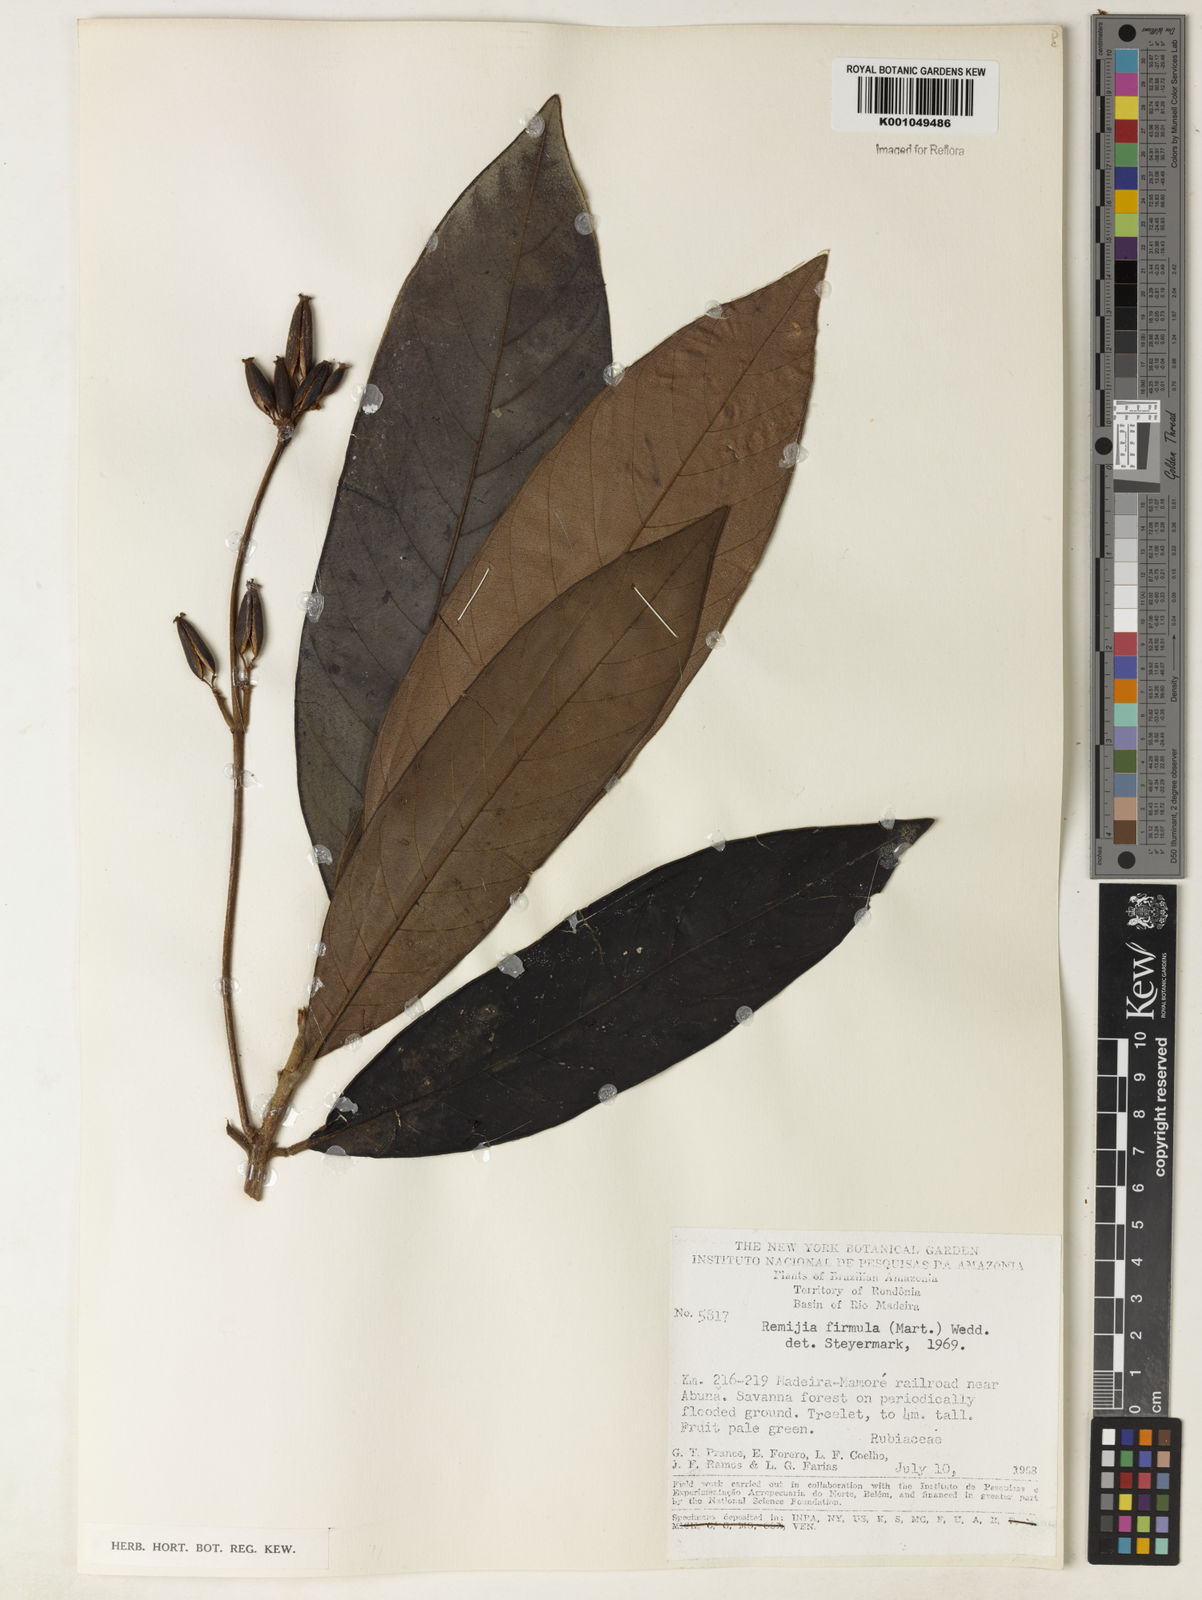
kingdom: Plantae
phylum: Tracheophyta
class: Magnoliopsida
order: Gentianales
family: Rubiaceae
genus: Remijia
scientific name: Remijia firmula
